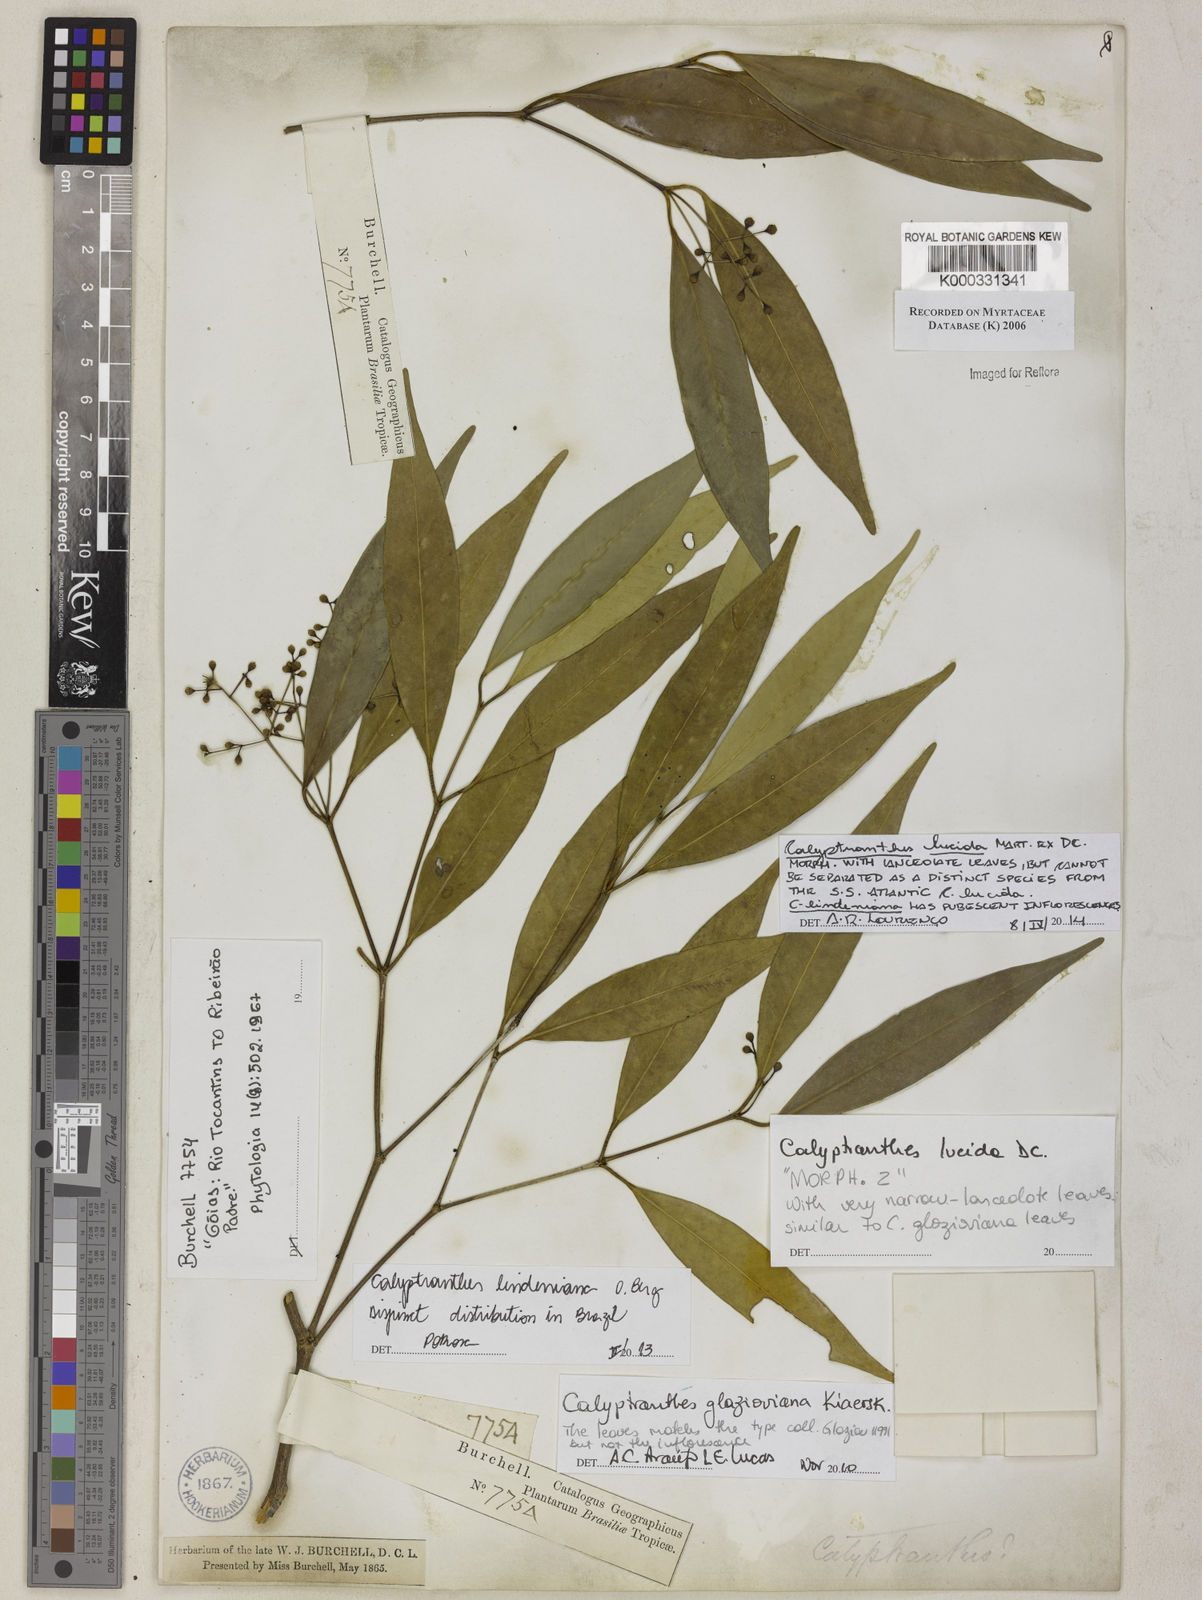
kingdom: Plantae
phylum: Tracheophyta
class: Magnoliopsida
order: Myrtales
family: Myrtaceae
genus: Calyptranthes
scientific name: Calyptranthes
